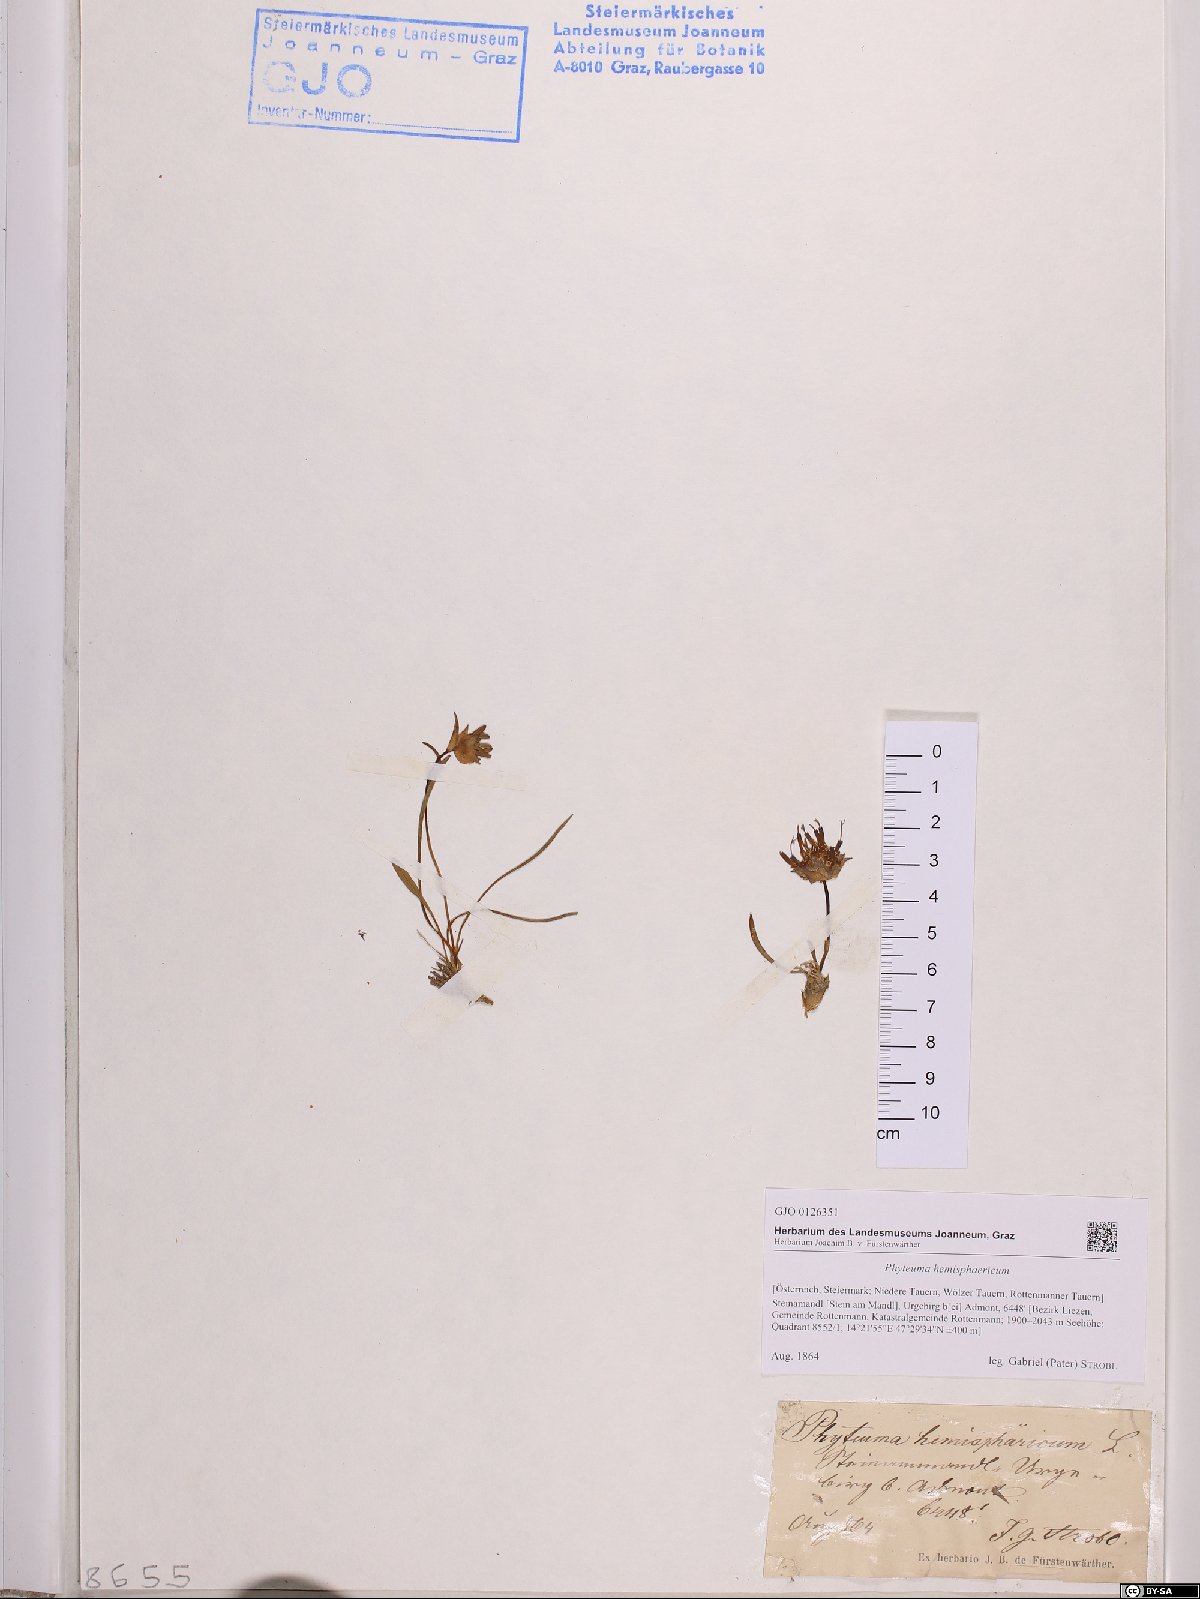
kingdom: Plantae
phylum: Tracheophyta
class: Magnoliopsida
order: Asterales
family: Campanulaceae
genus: Phyteuma
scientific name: Phyteuma hemisphaericum
